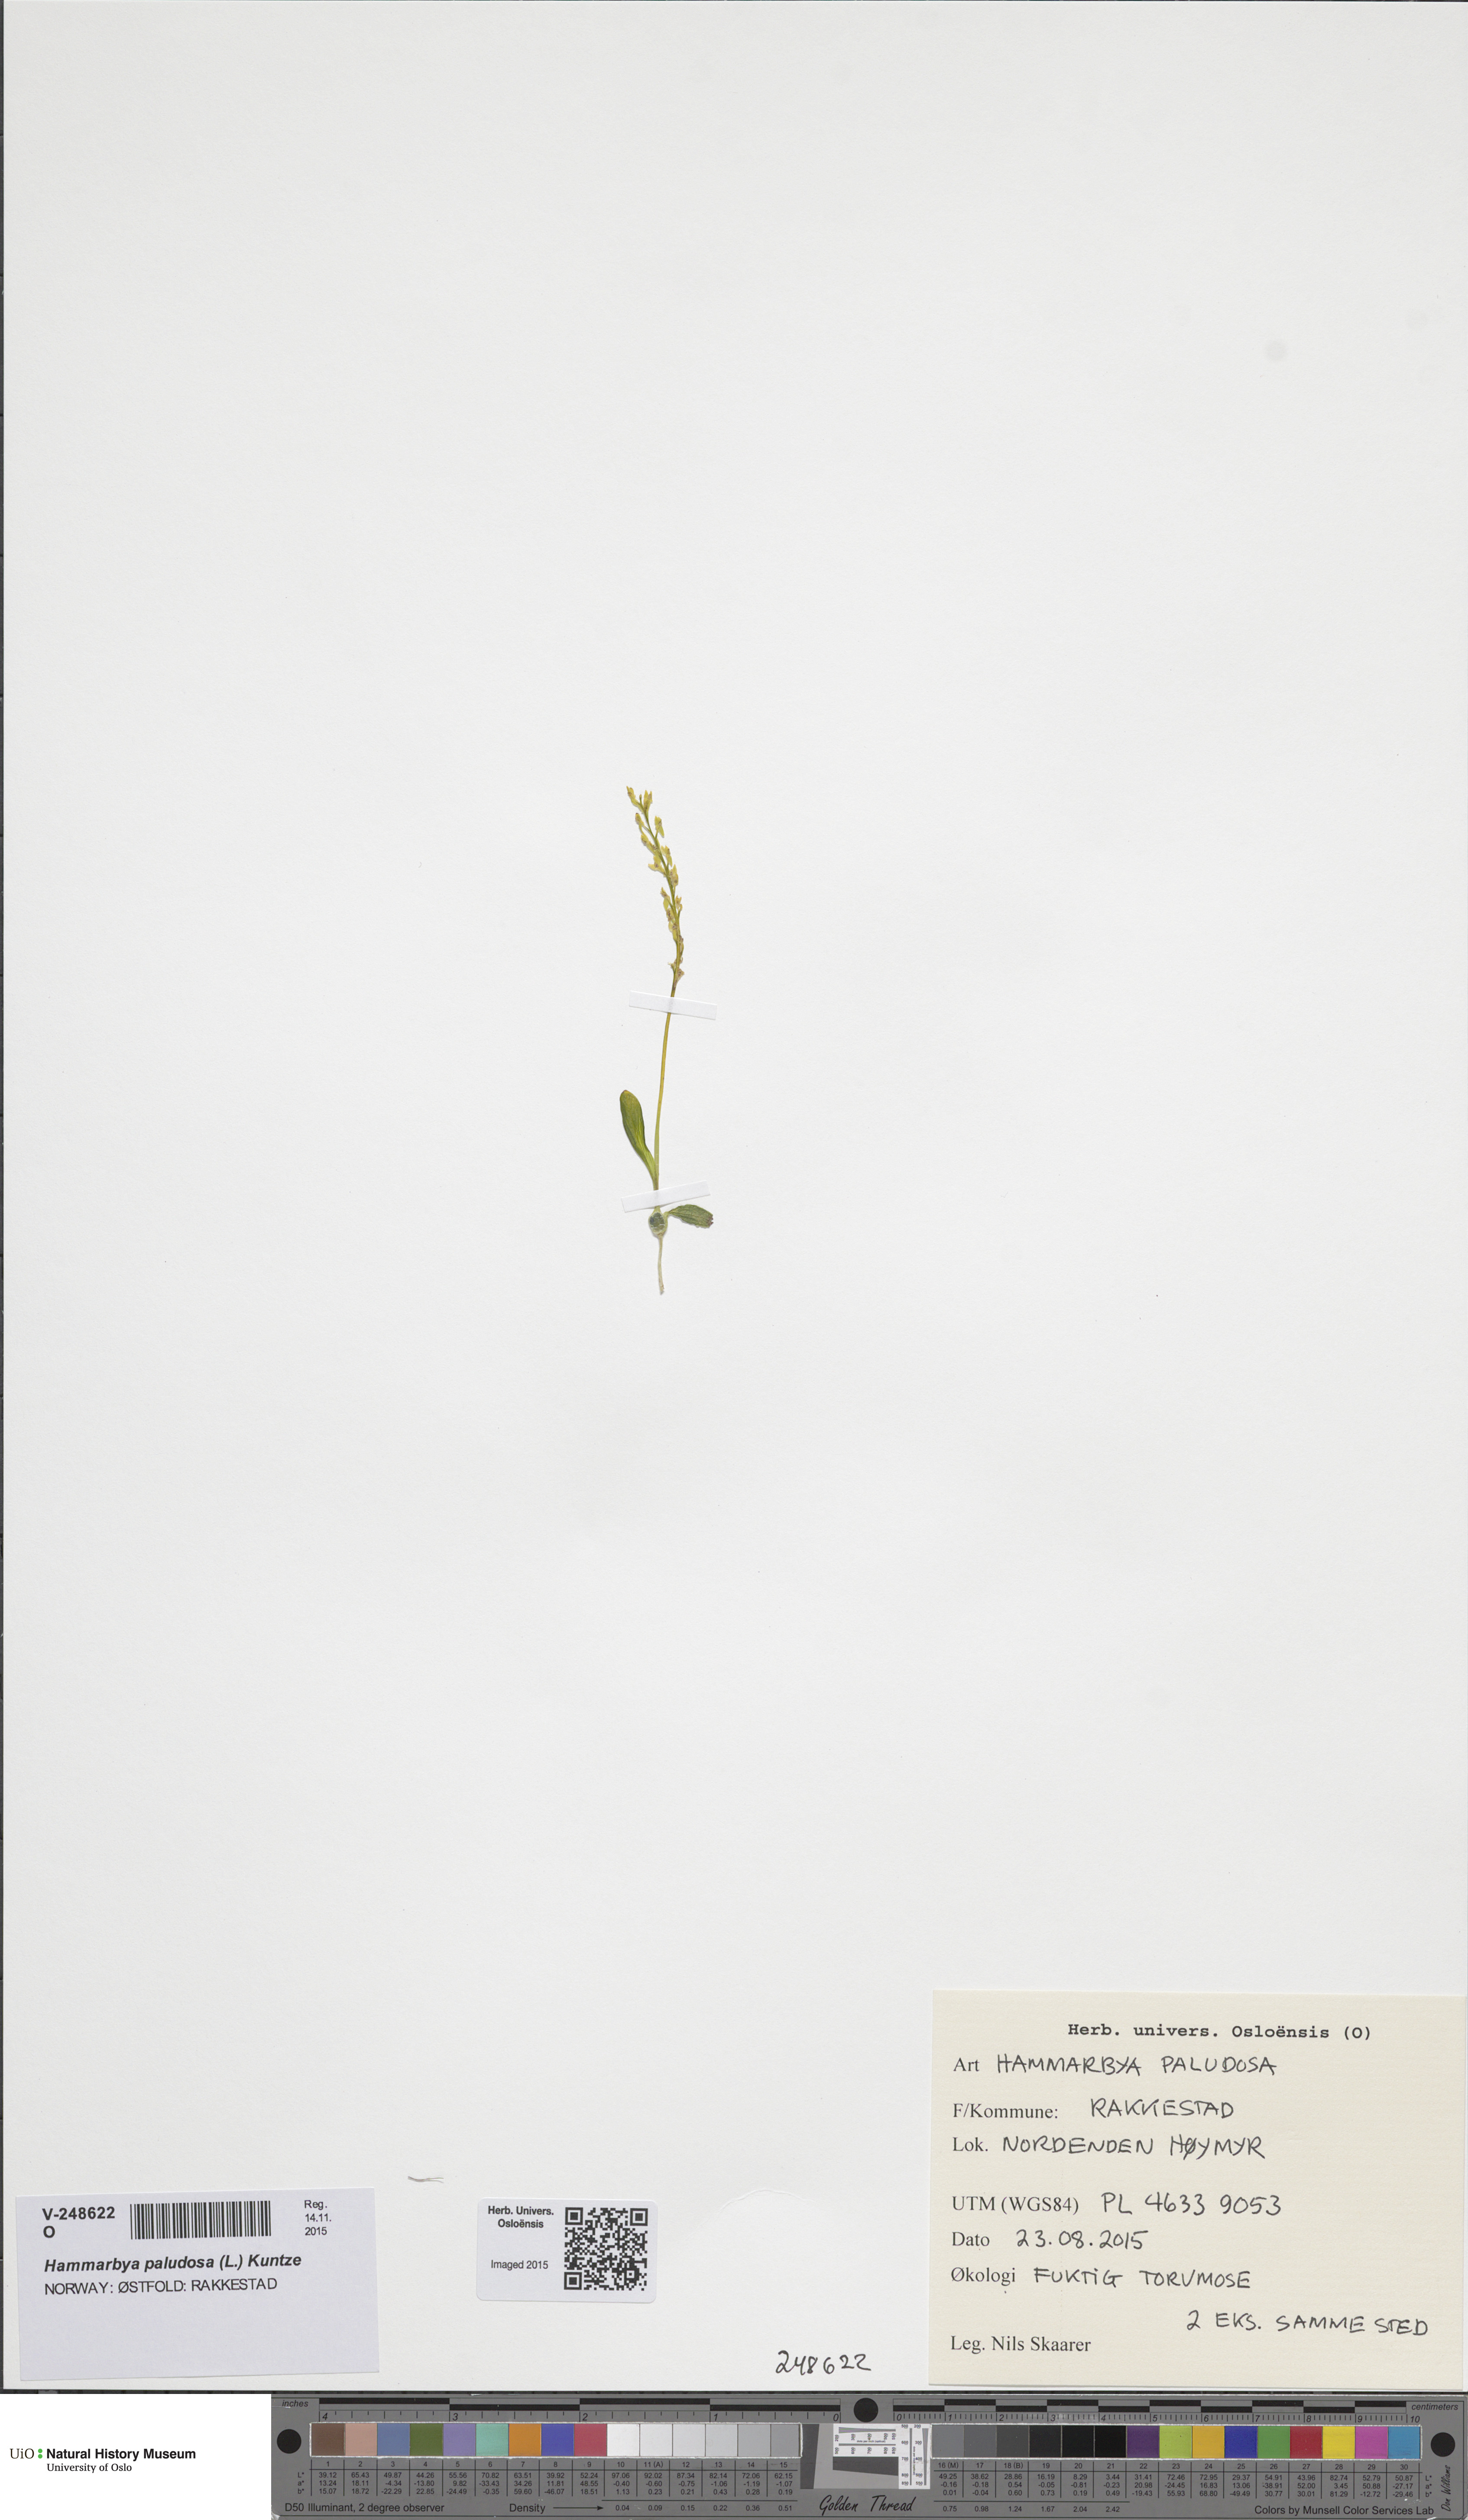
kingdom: Plantae
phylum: Tracheophyta
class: Liliopsida
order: Asparagales
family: Orchidaceae
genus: Hammarbya
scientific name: Hammarbya paludosa
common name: Bog orchid
